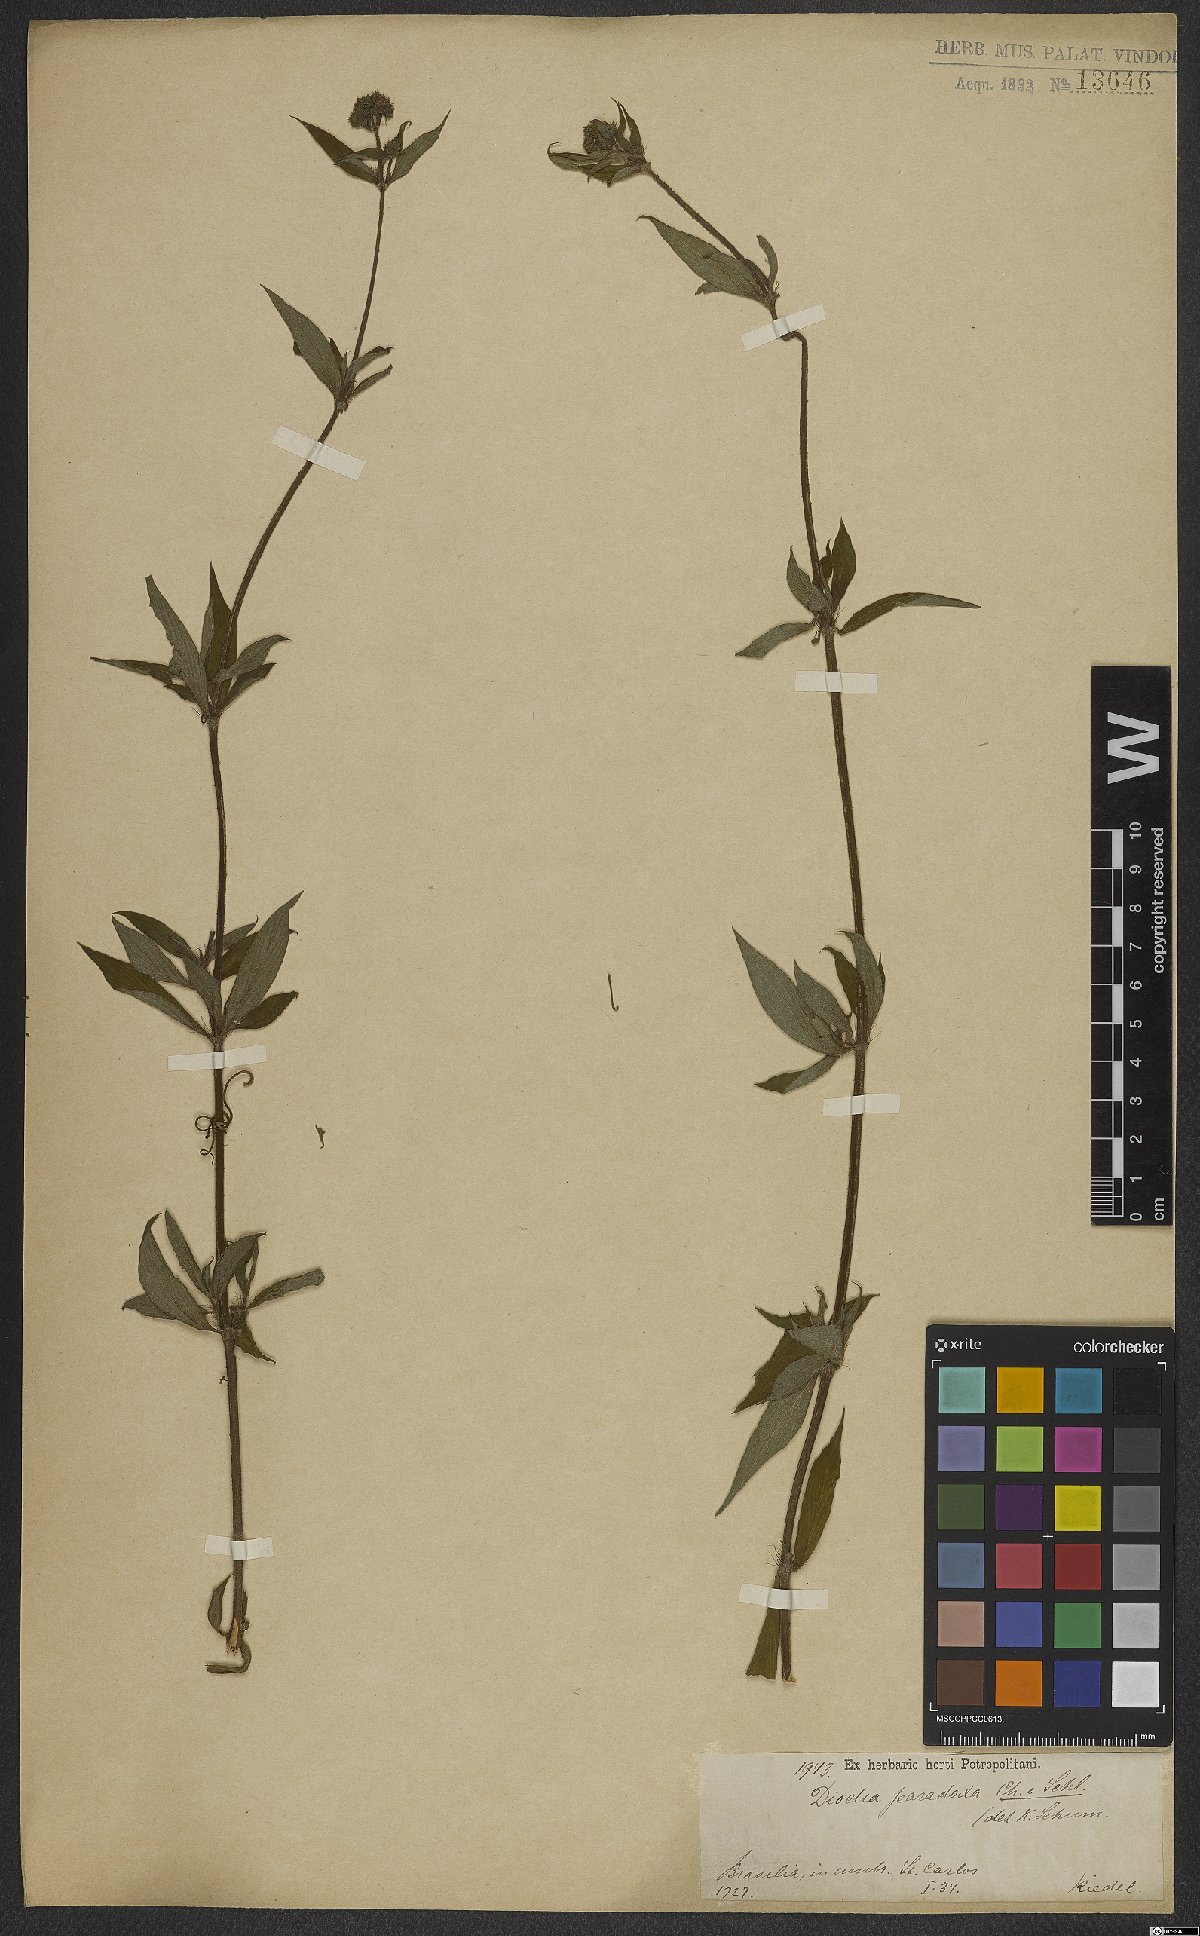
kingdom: Plantae
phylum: Tracheophyta
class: Magnoliopsida
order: Gentianales
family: Rubiaceae
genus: Galianthe
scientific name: Galianthe hispidula
